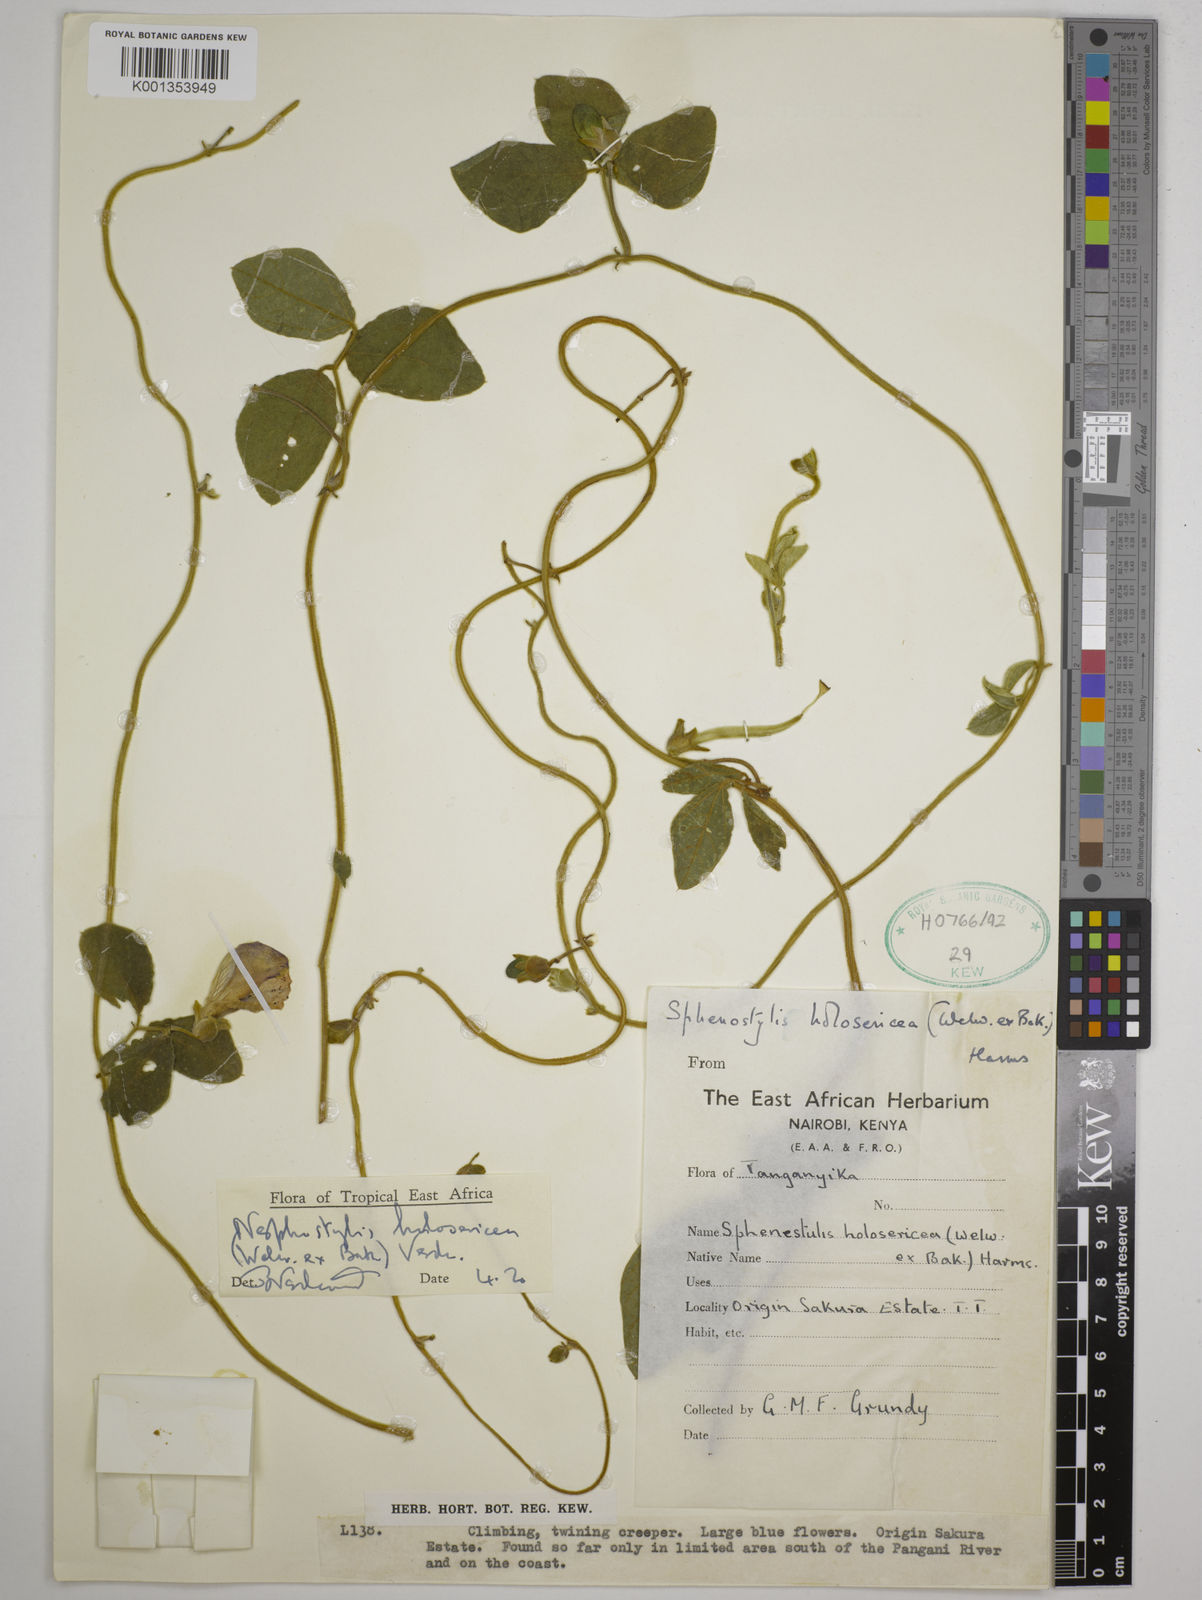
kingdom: Plantae
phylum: Tracheophyta
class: Magnoliopsida
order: Fabales
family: Fabaceae
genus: Nesphostylis
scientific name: Nesphostylis holosericea
